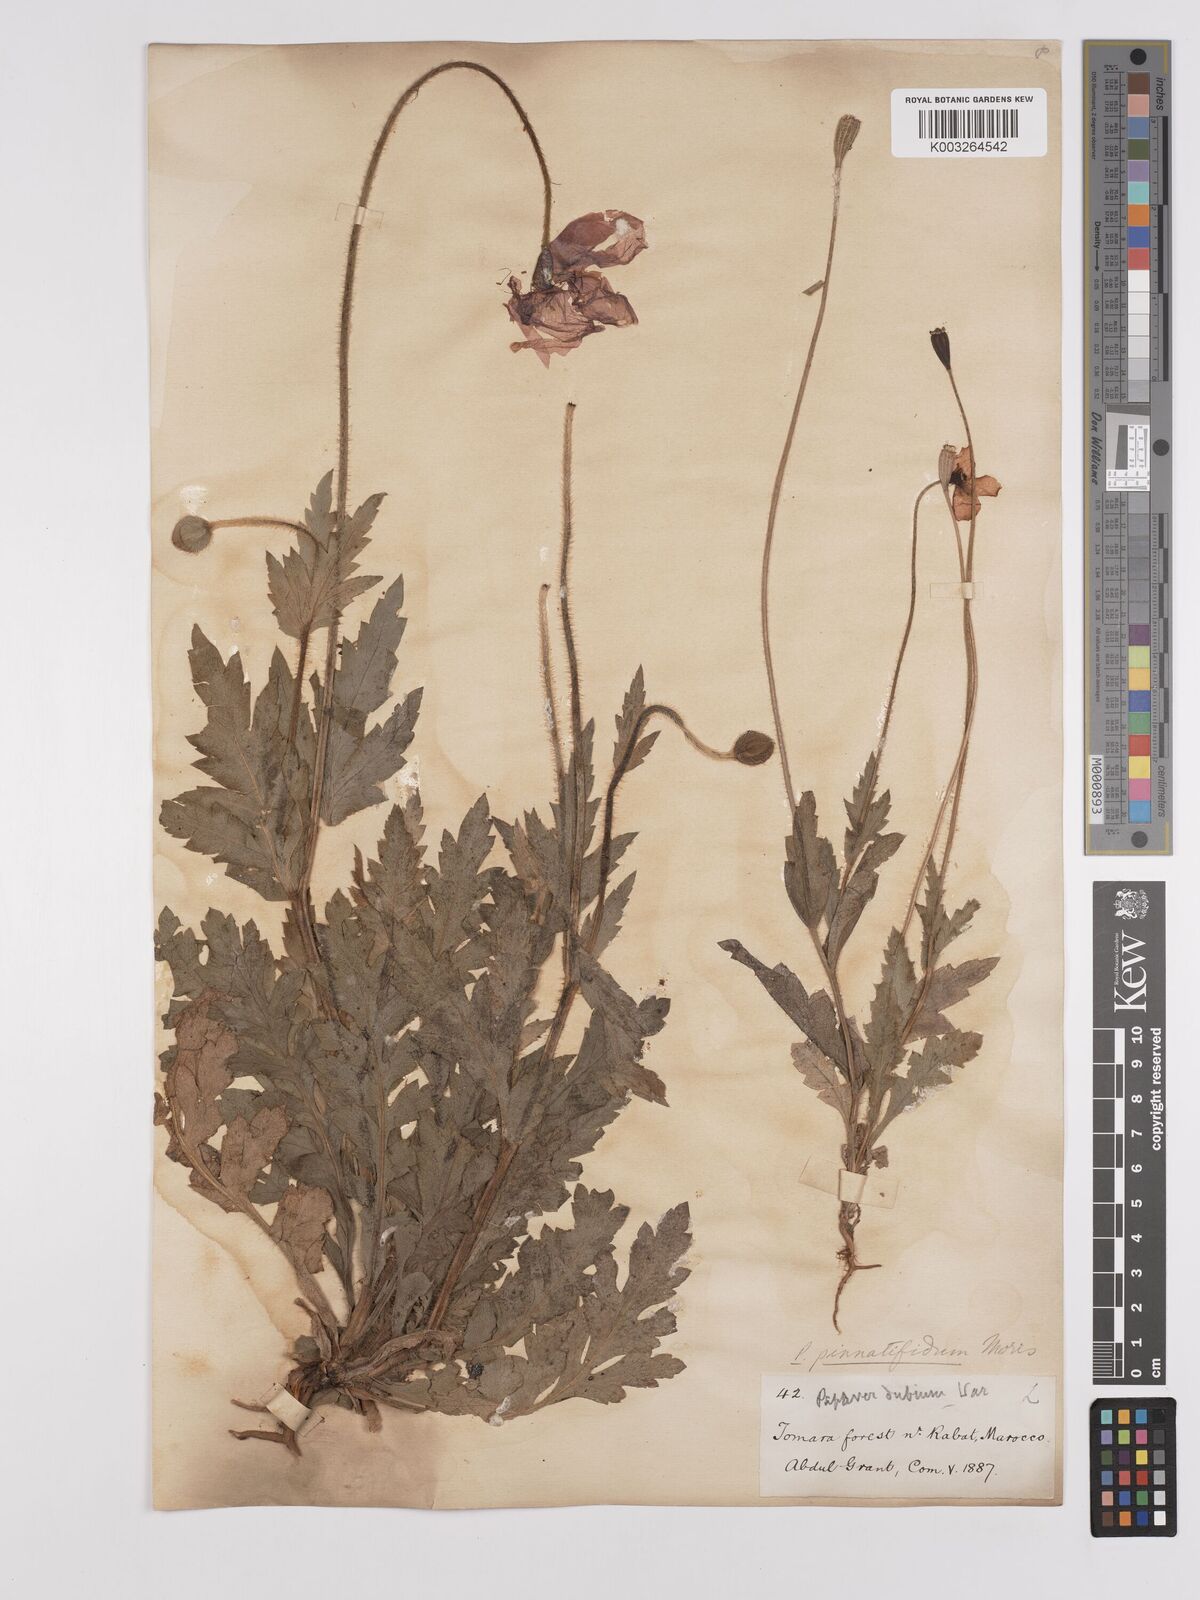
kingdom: Plantae
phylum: Tracheophyta
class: Magnoliopsida
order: Ranunculales
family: Papaveraceae
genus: Papaver
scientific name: Papaver pinnatifidum
